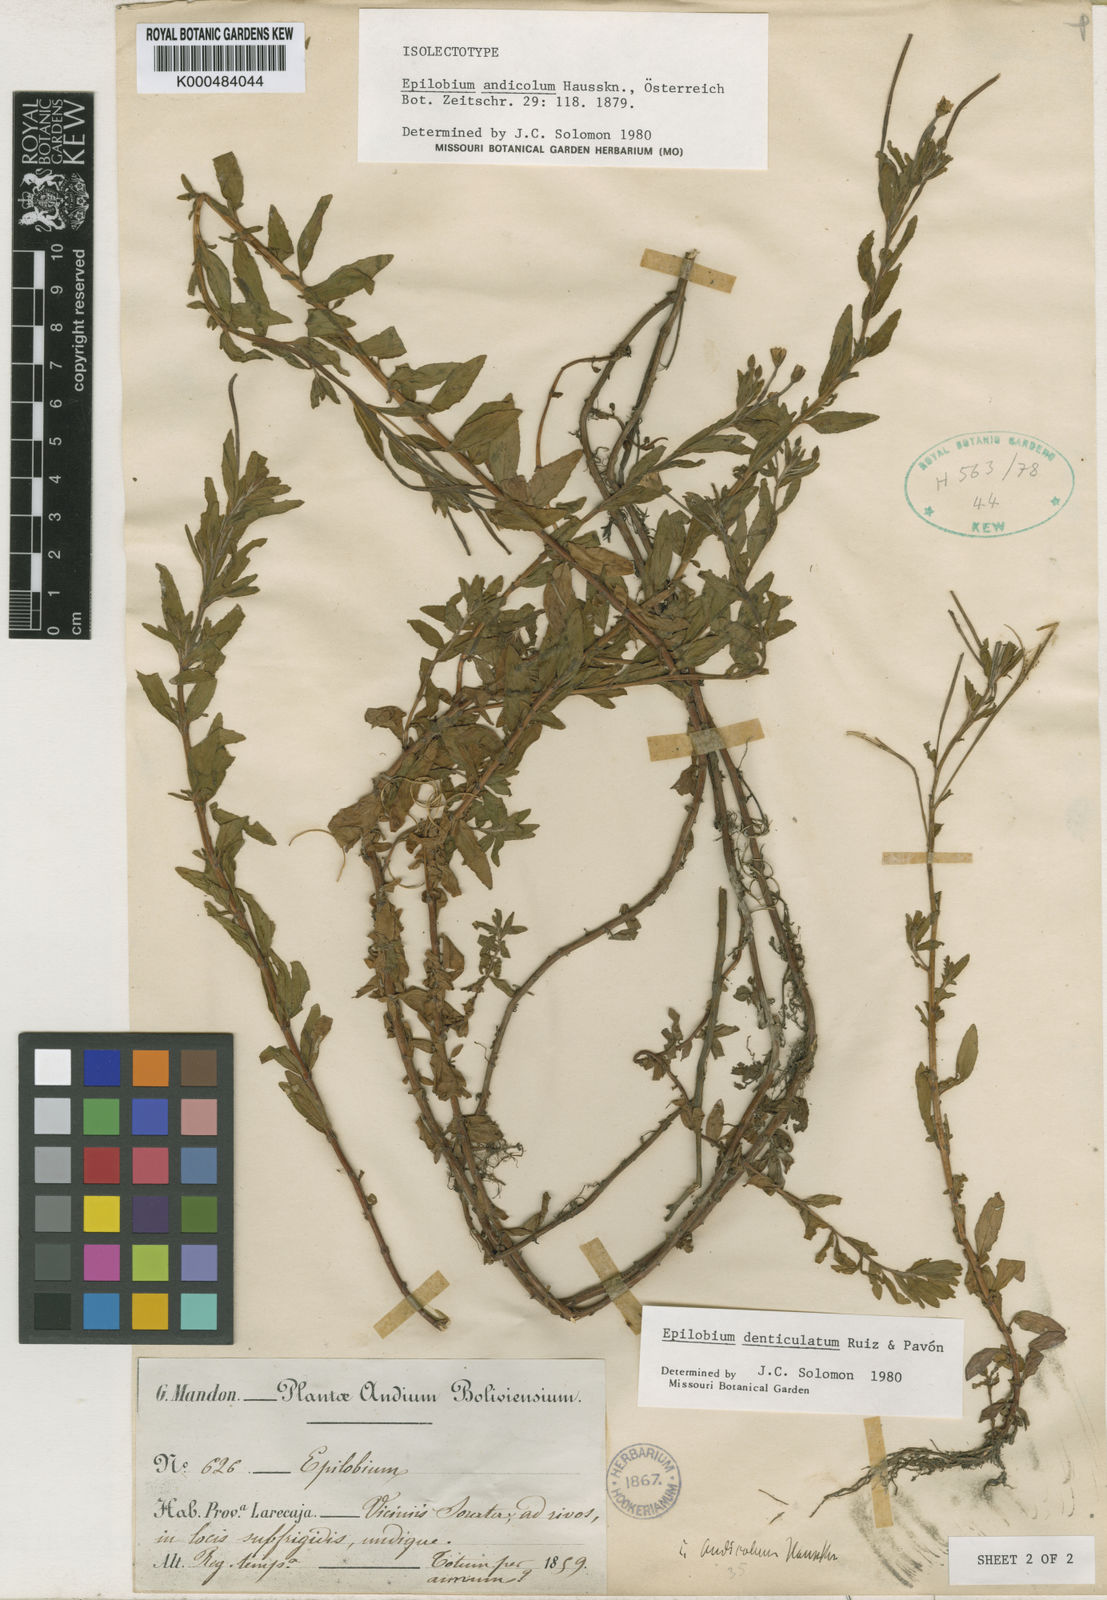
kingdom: Plantae
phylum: Tracheophyta
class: Magnoliopsida
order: Myrtales
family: Onagraceae
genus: Epilobium
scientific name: Epilobium denticulatum
